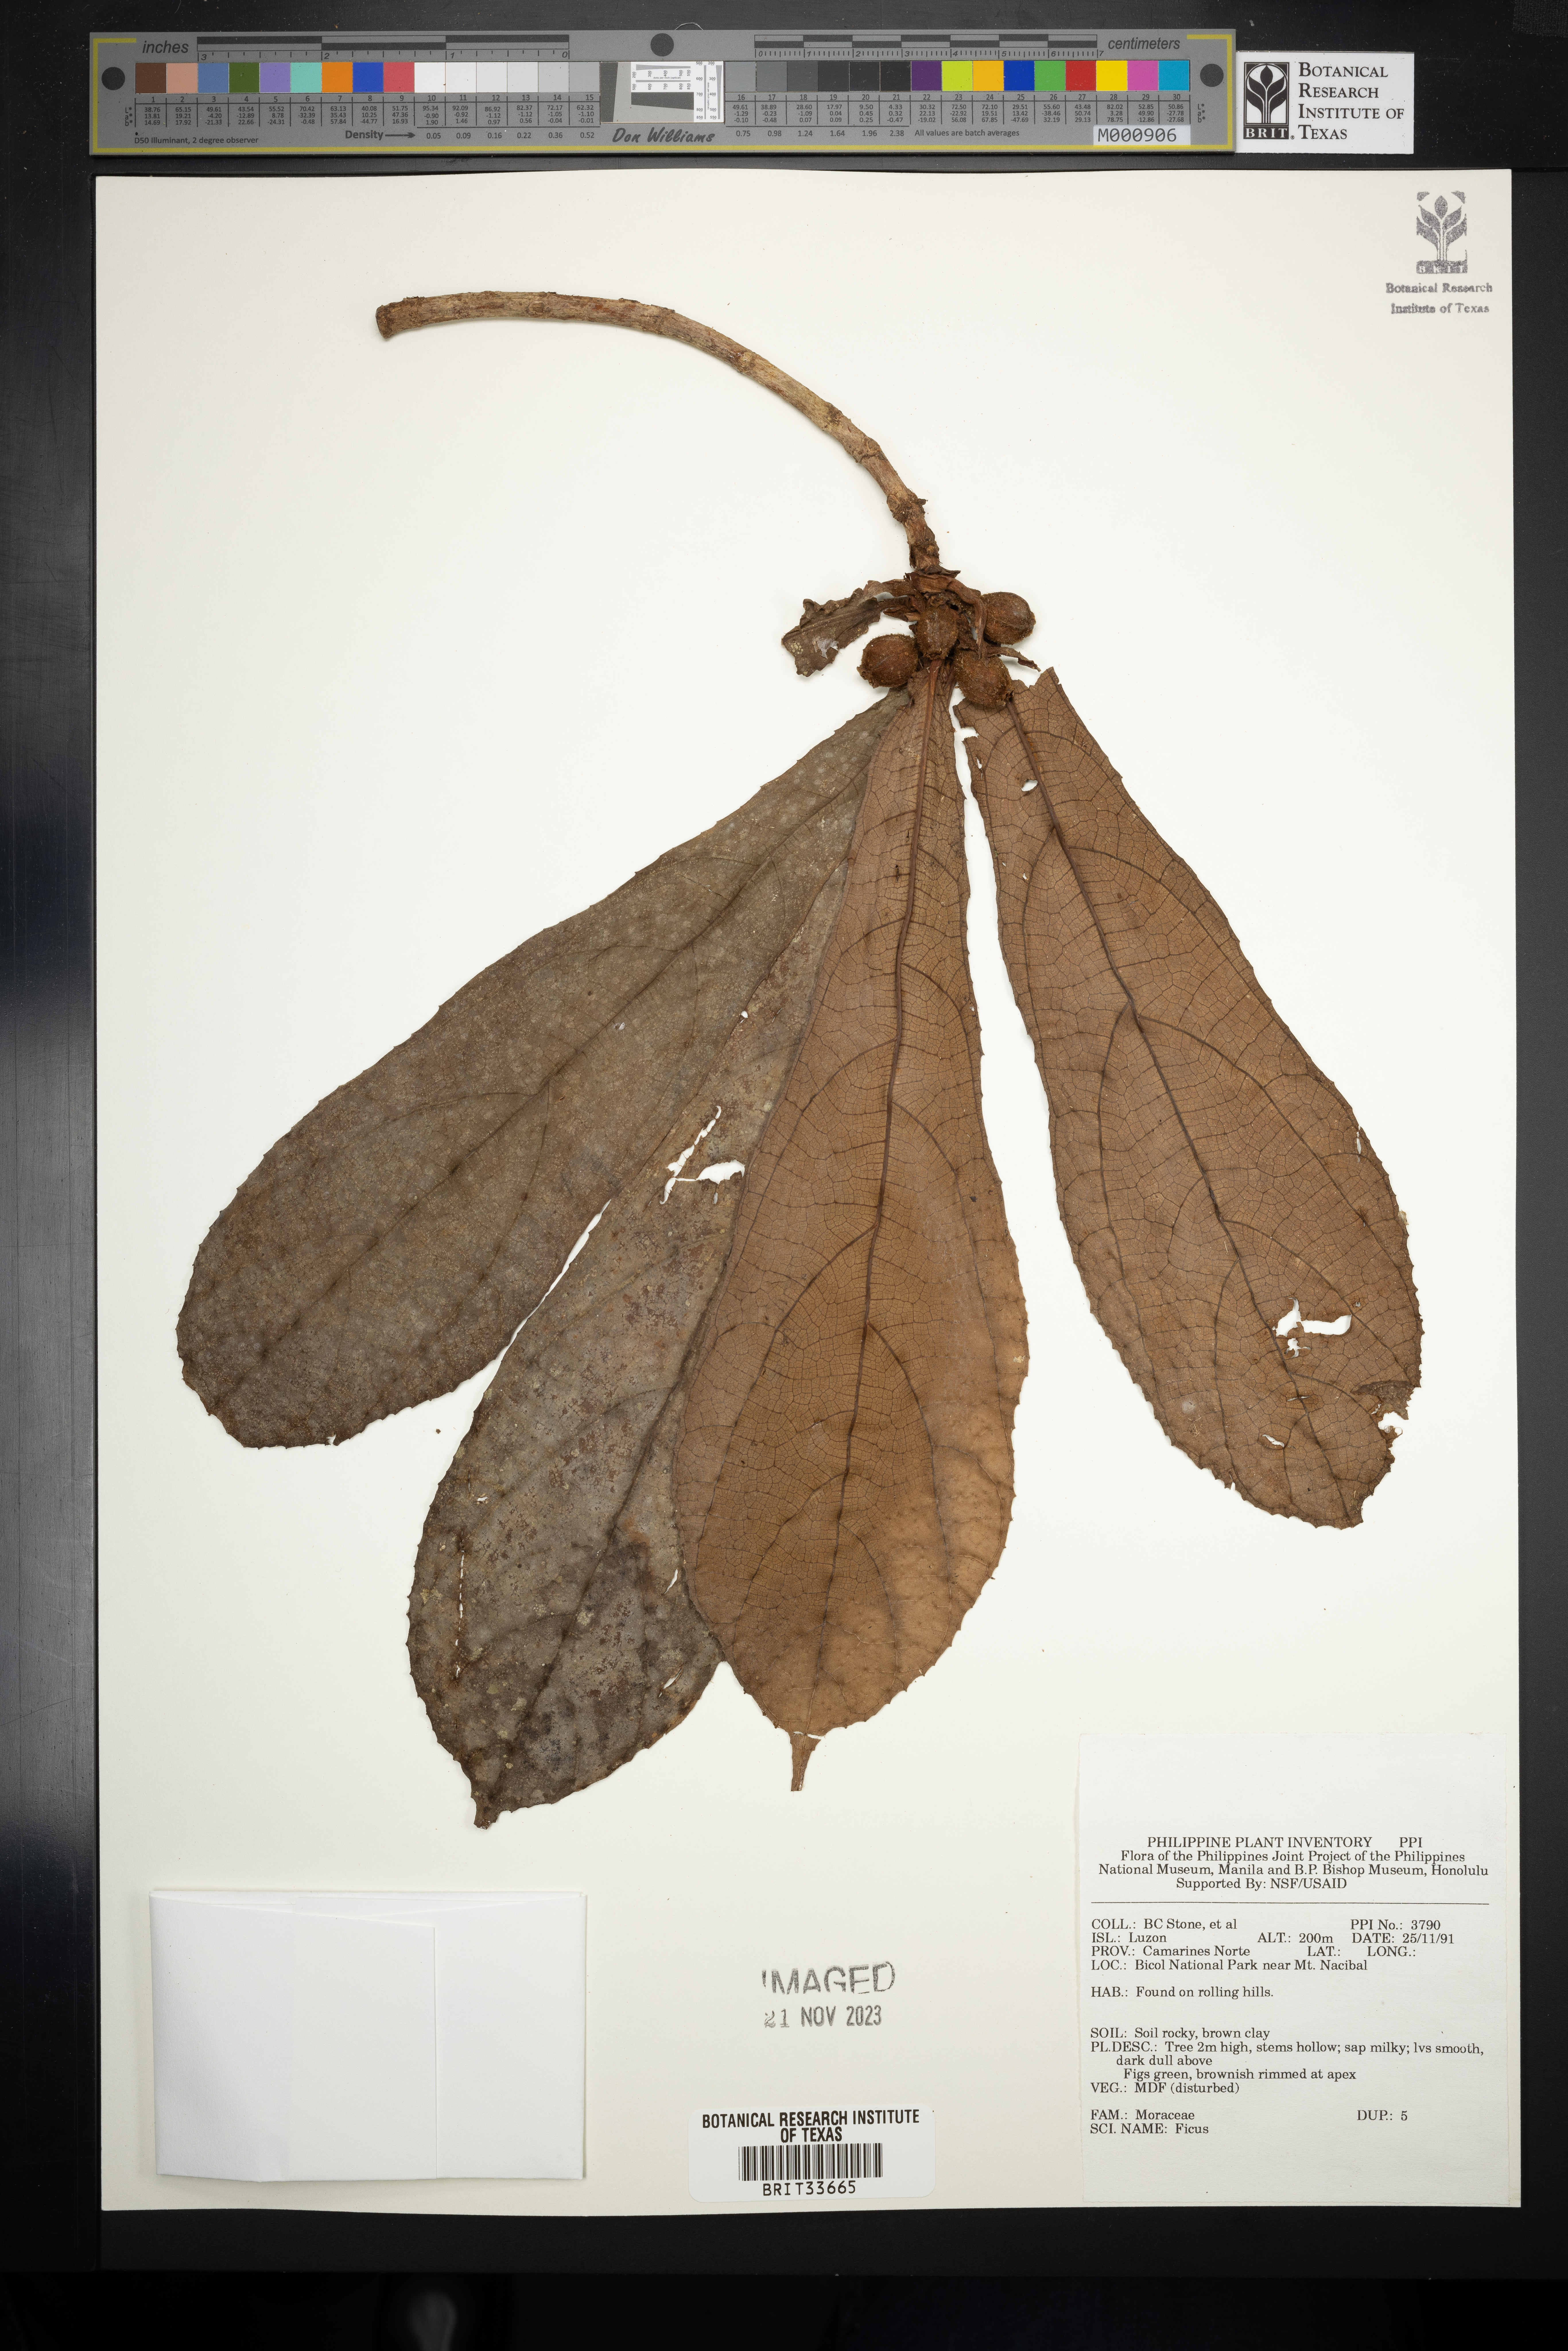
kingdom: Plantae
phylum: Tracheophyta
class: Magnoliopsida
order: Rosales
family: Moraceae
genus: Ficus
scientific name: Ficus
